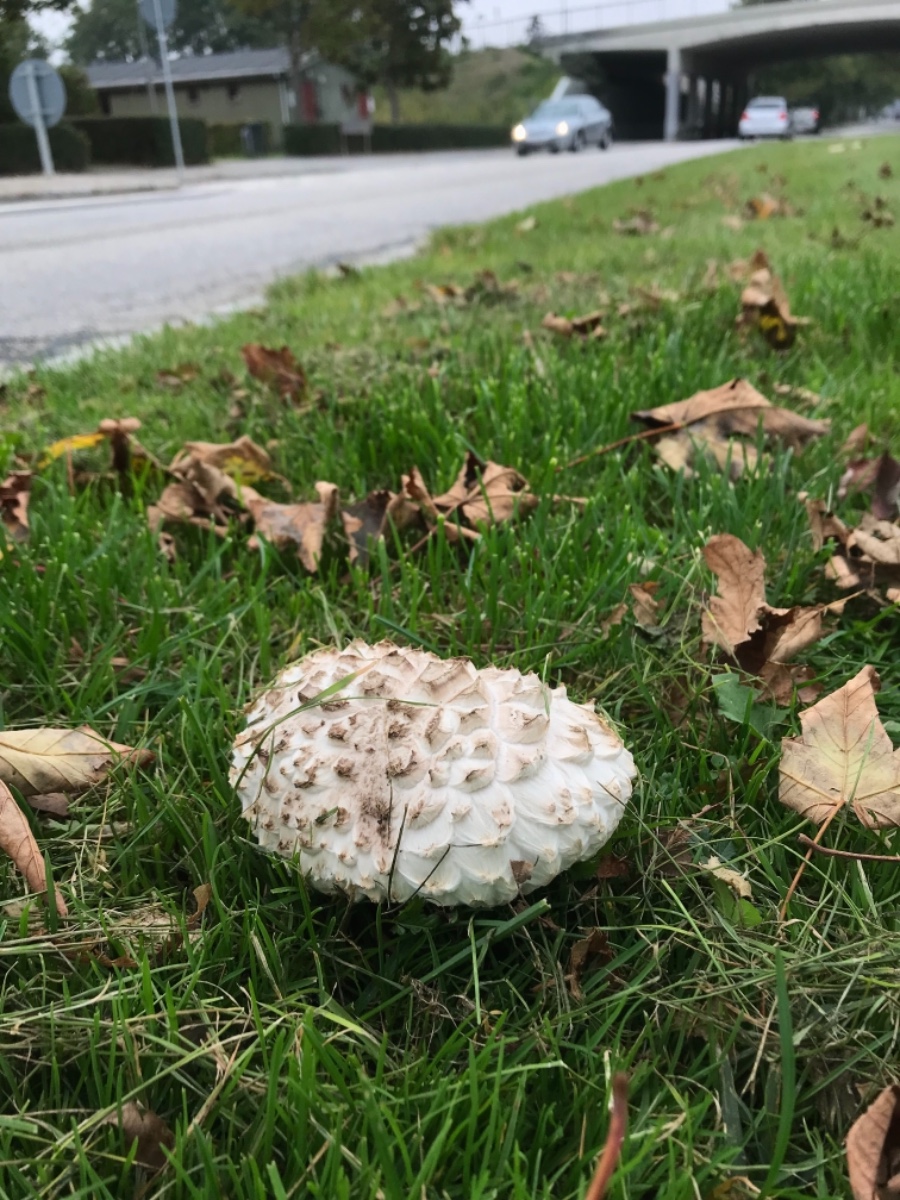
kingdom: Fungi
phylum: Basidiomycota
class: Agaricomycetes
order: Agaricales
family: Agaricaceae
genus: Agaricus
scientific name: Agaricus bernardii
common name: strandengs-champignon
